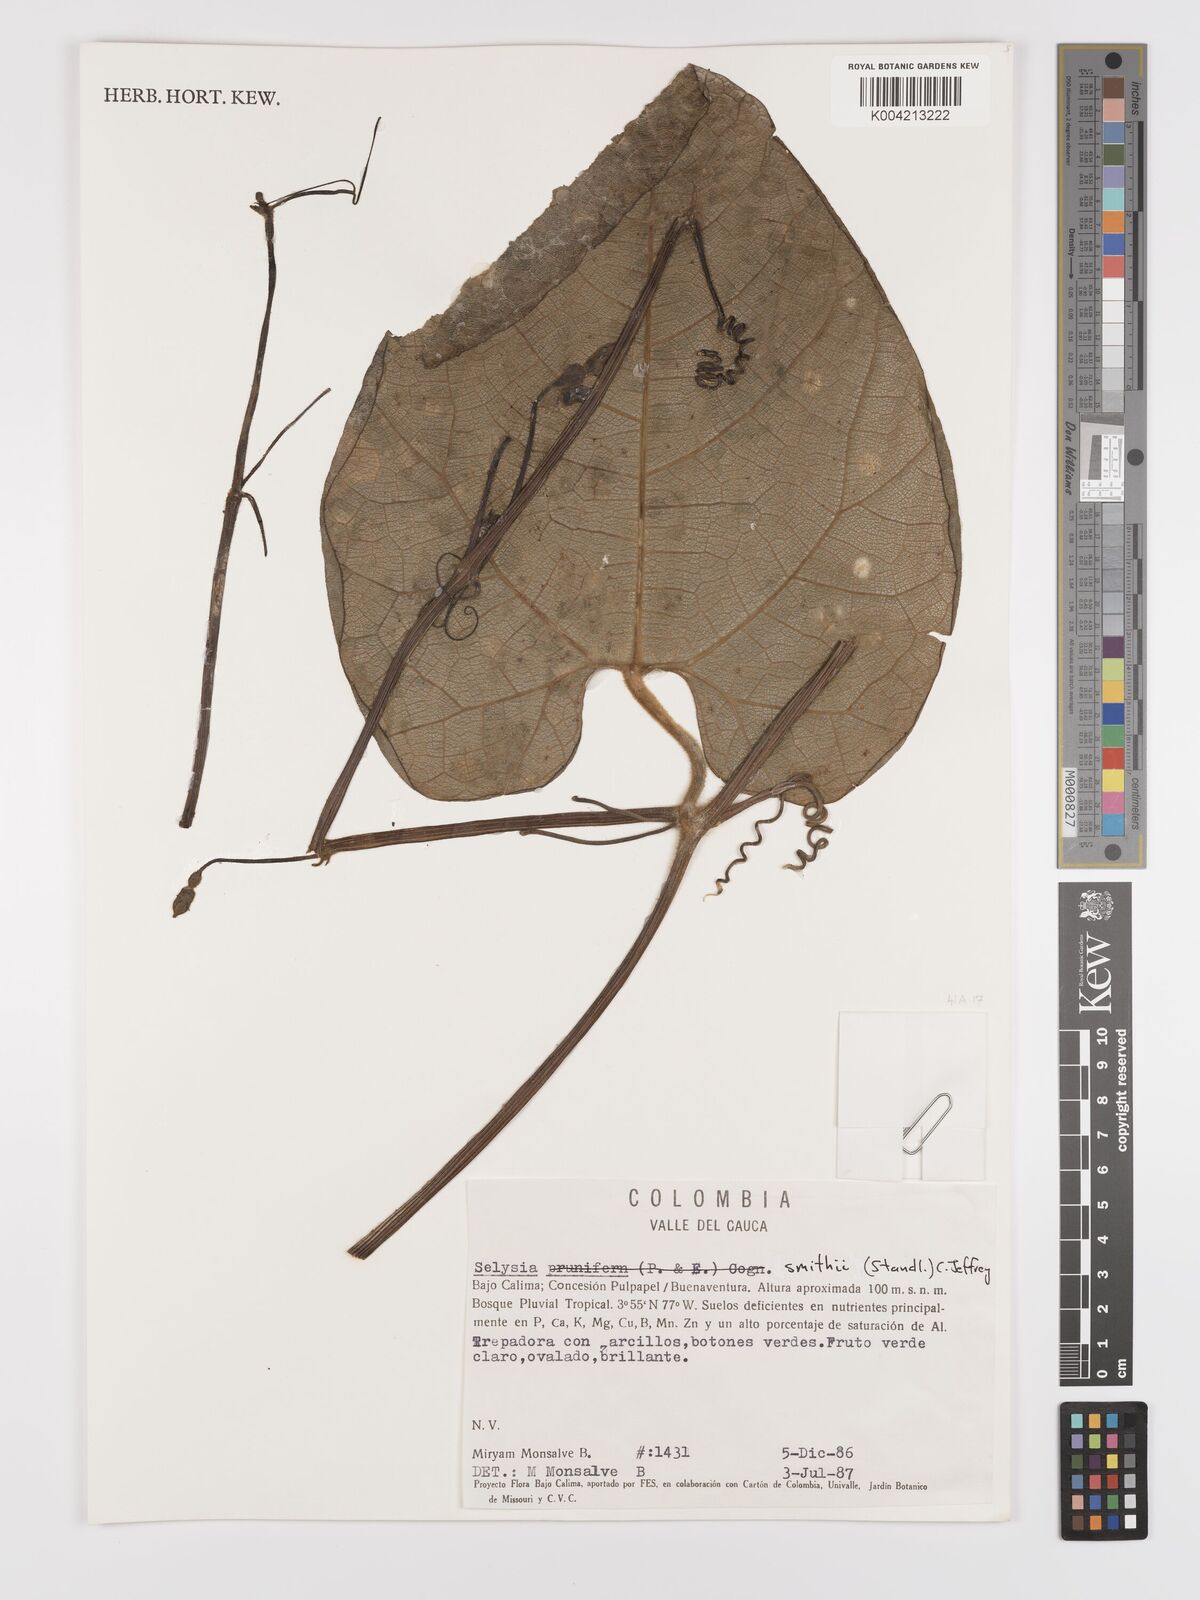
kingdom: Plantae
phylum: Tracheophyta
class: Magnoliopsida
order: Cucurbitales
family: Cucurbitaceae
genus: Cayaponia
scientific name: Cayaponia smithii
